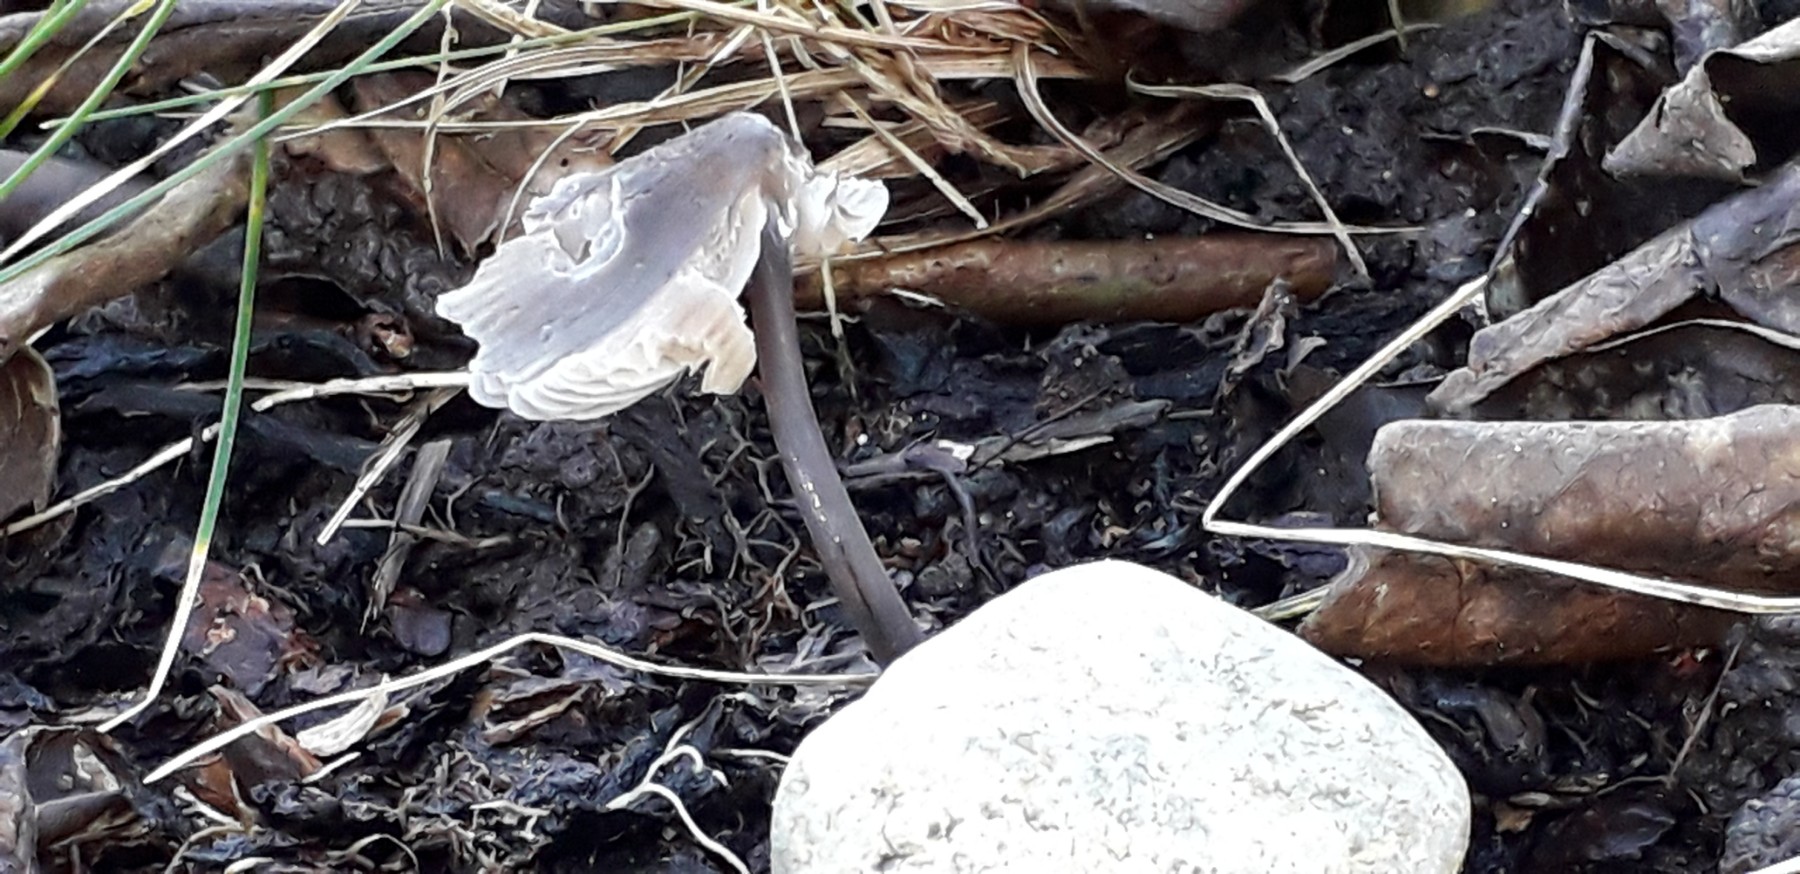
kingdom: Fungi
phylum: Basidiomycota
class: Agaricomycetes
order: Agaricales
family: Mycenaceae
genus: Mycena
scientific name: Mycena leptocephala
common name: klor-huesvamp
